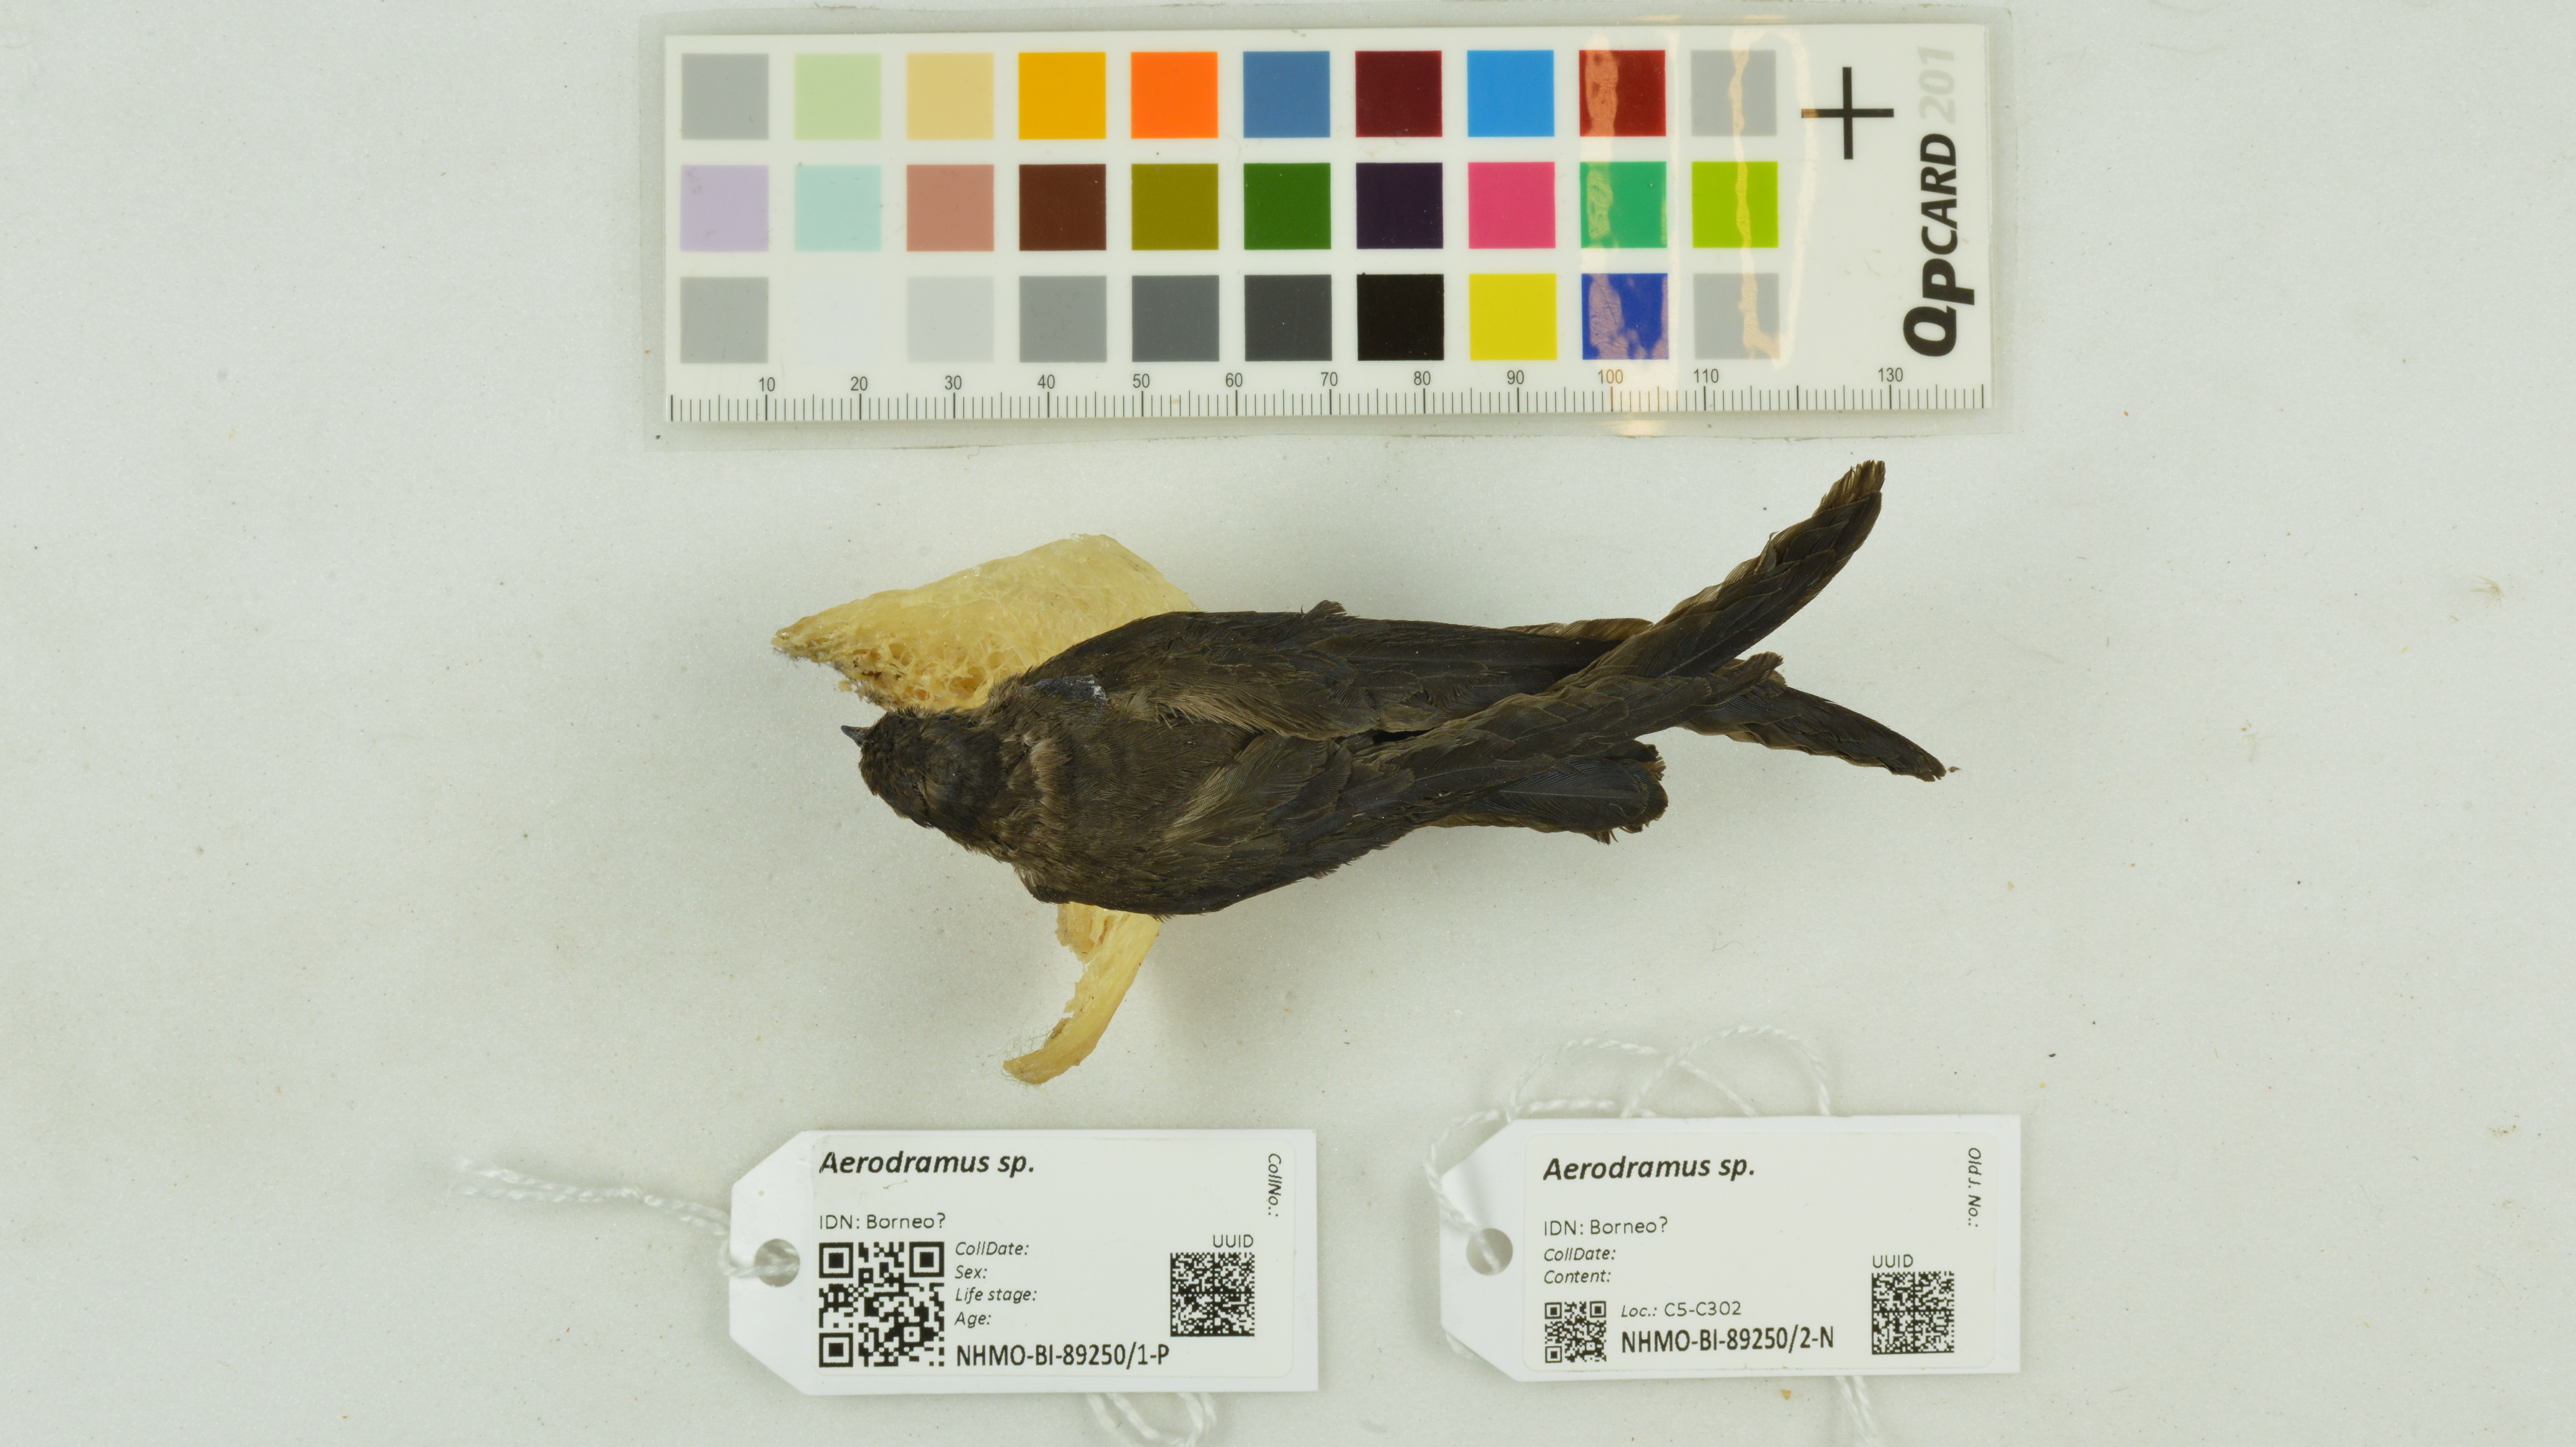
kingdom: Animalia
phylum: Chordata
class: Aves
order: Apodiformes
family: Apodidae
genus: Aerodramus
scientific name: Aerodramus
